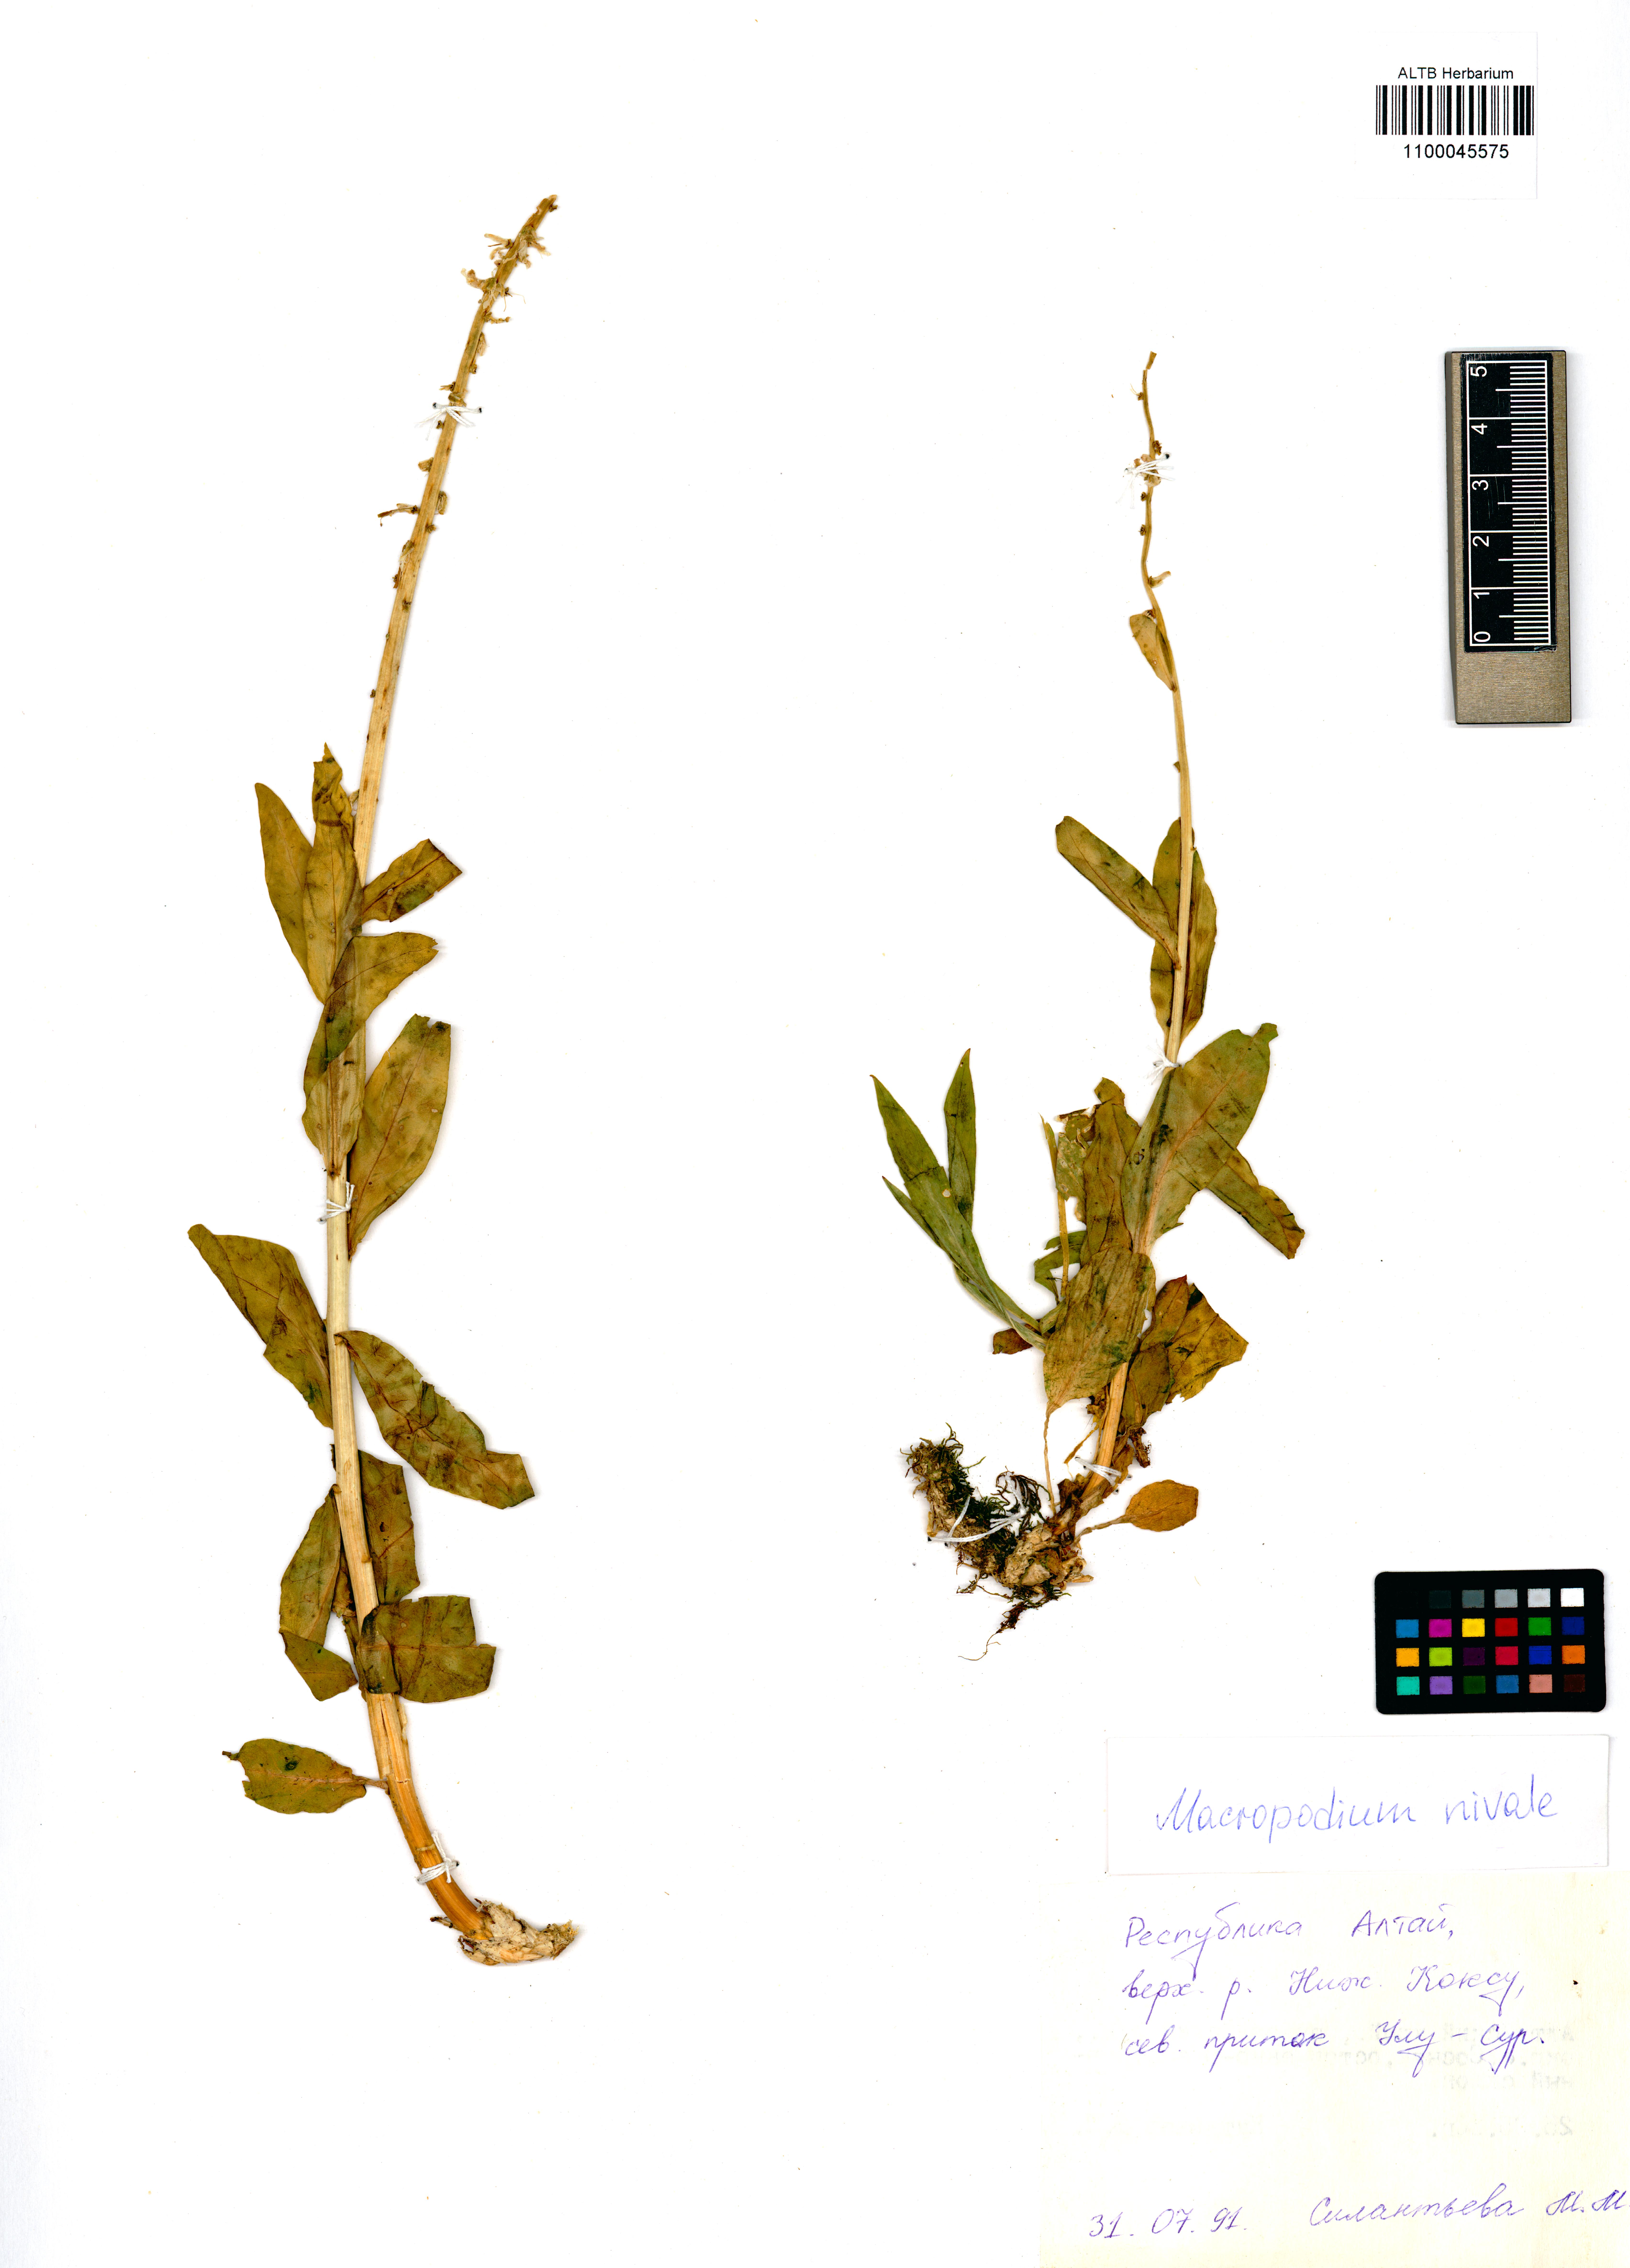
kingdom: Plantae
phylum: Tracheophyta
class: Magnoliopsida
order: Brassicales
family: Brassicaceae
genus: Macropodium
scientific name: Macropodium nivale
